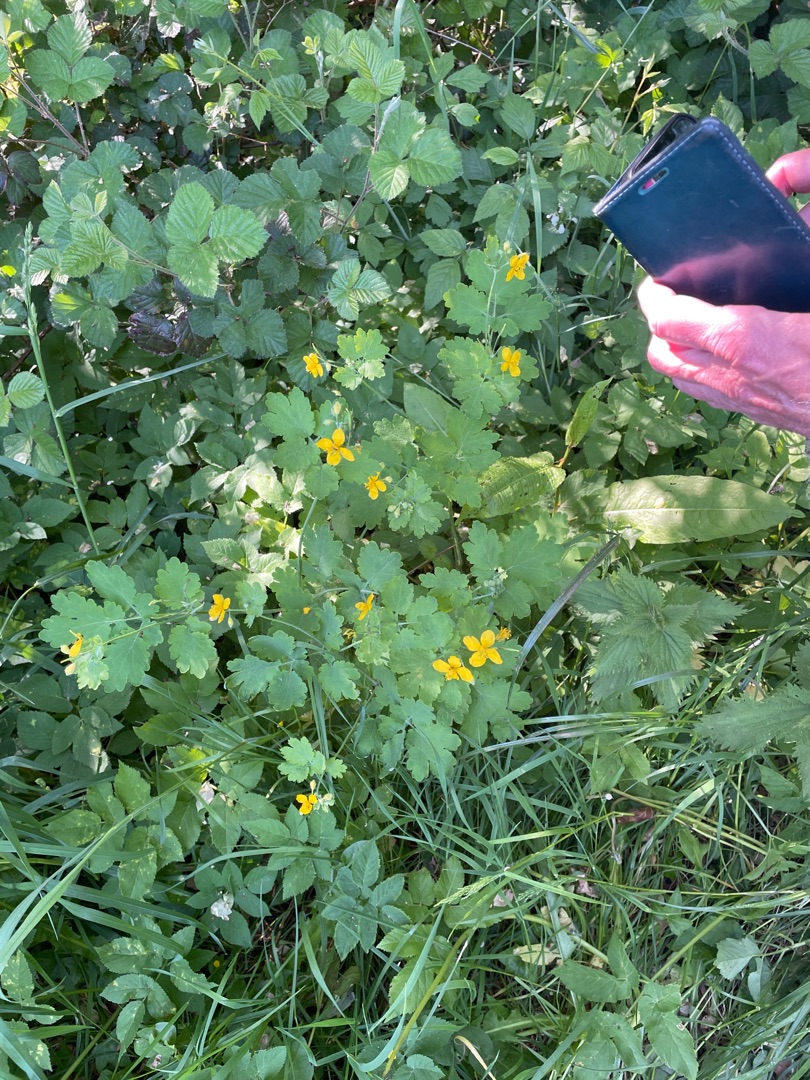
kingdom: Plantae
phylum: Tracheophyta
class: Magnoliopsida
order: Ranunculales
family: Papaveraceae
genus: Chelidonium
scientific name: Chelidonium majus
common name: Svaleurt
